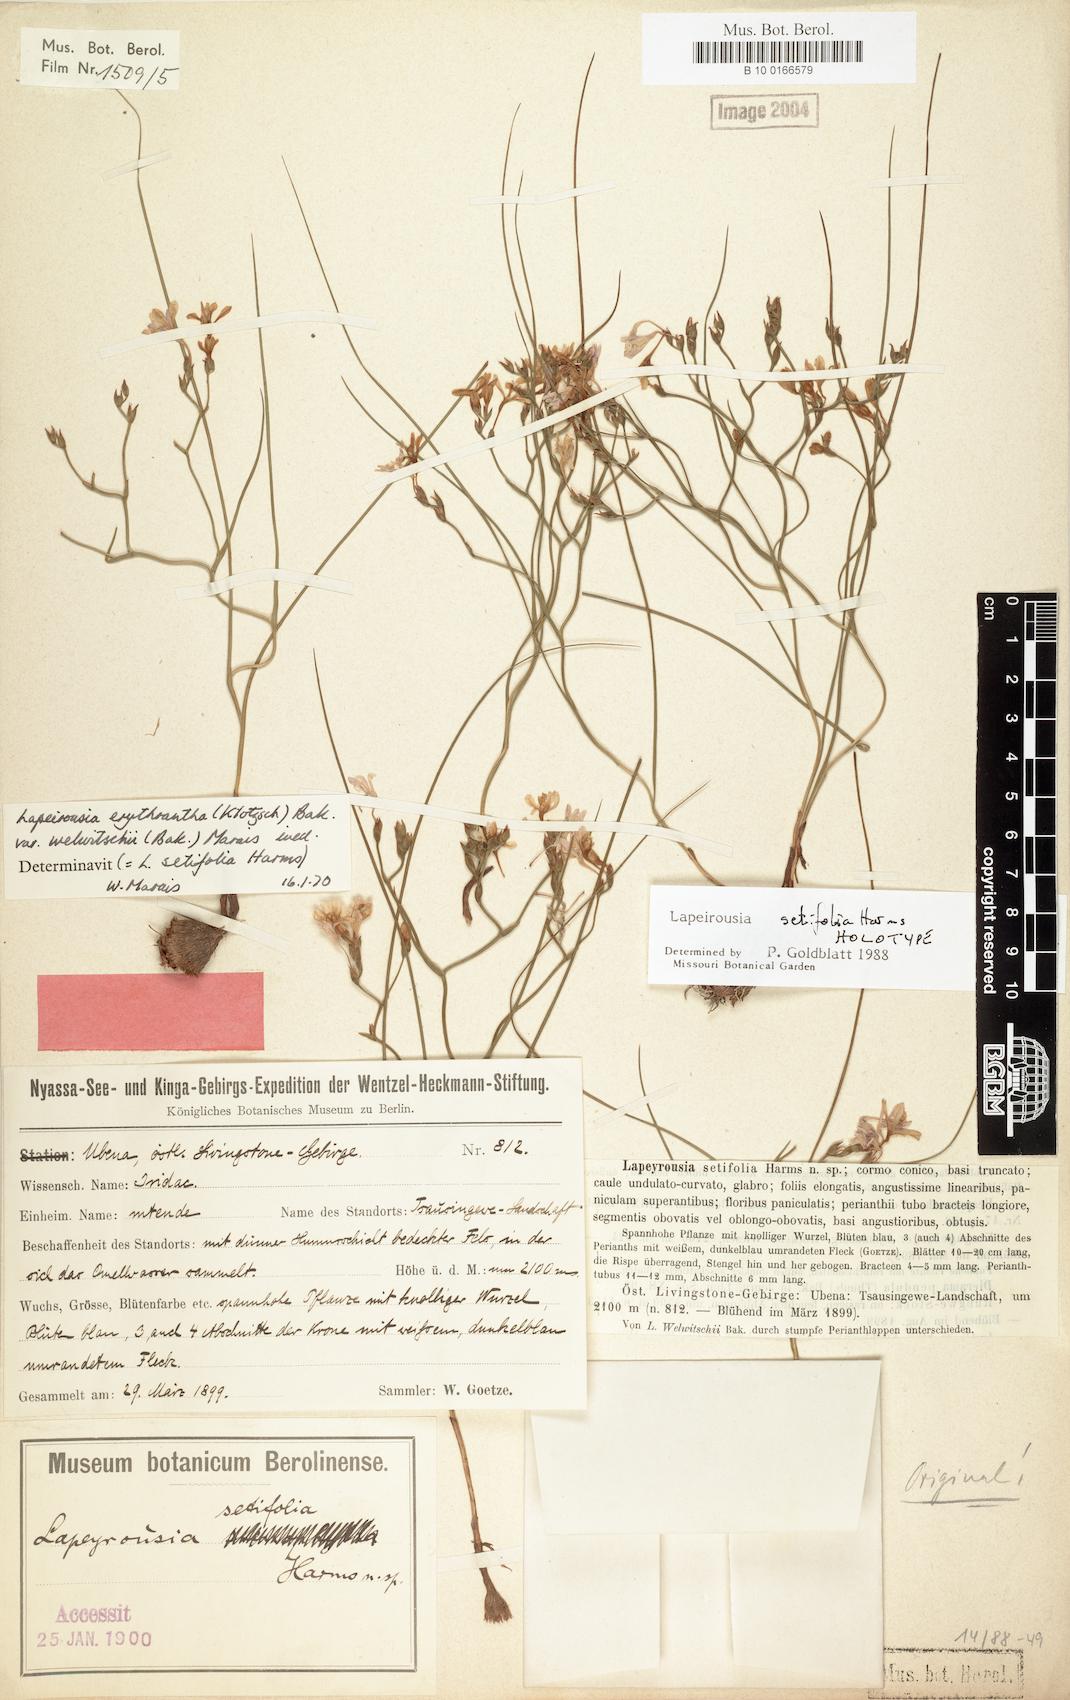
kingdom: Plantae
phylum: Tracheophyta
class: Liliopsida
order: Asparagales
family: Iridaceae
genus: Afrosolen
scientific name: Afrosolen setifolius
